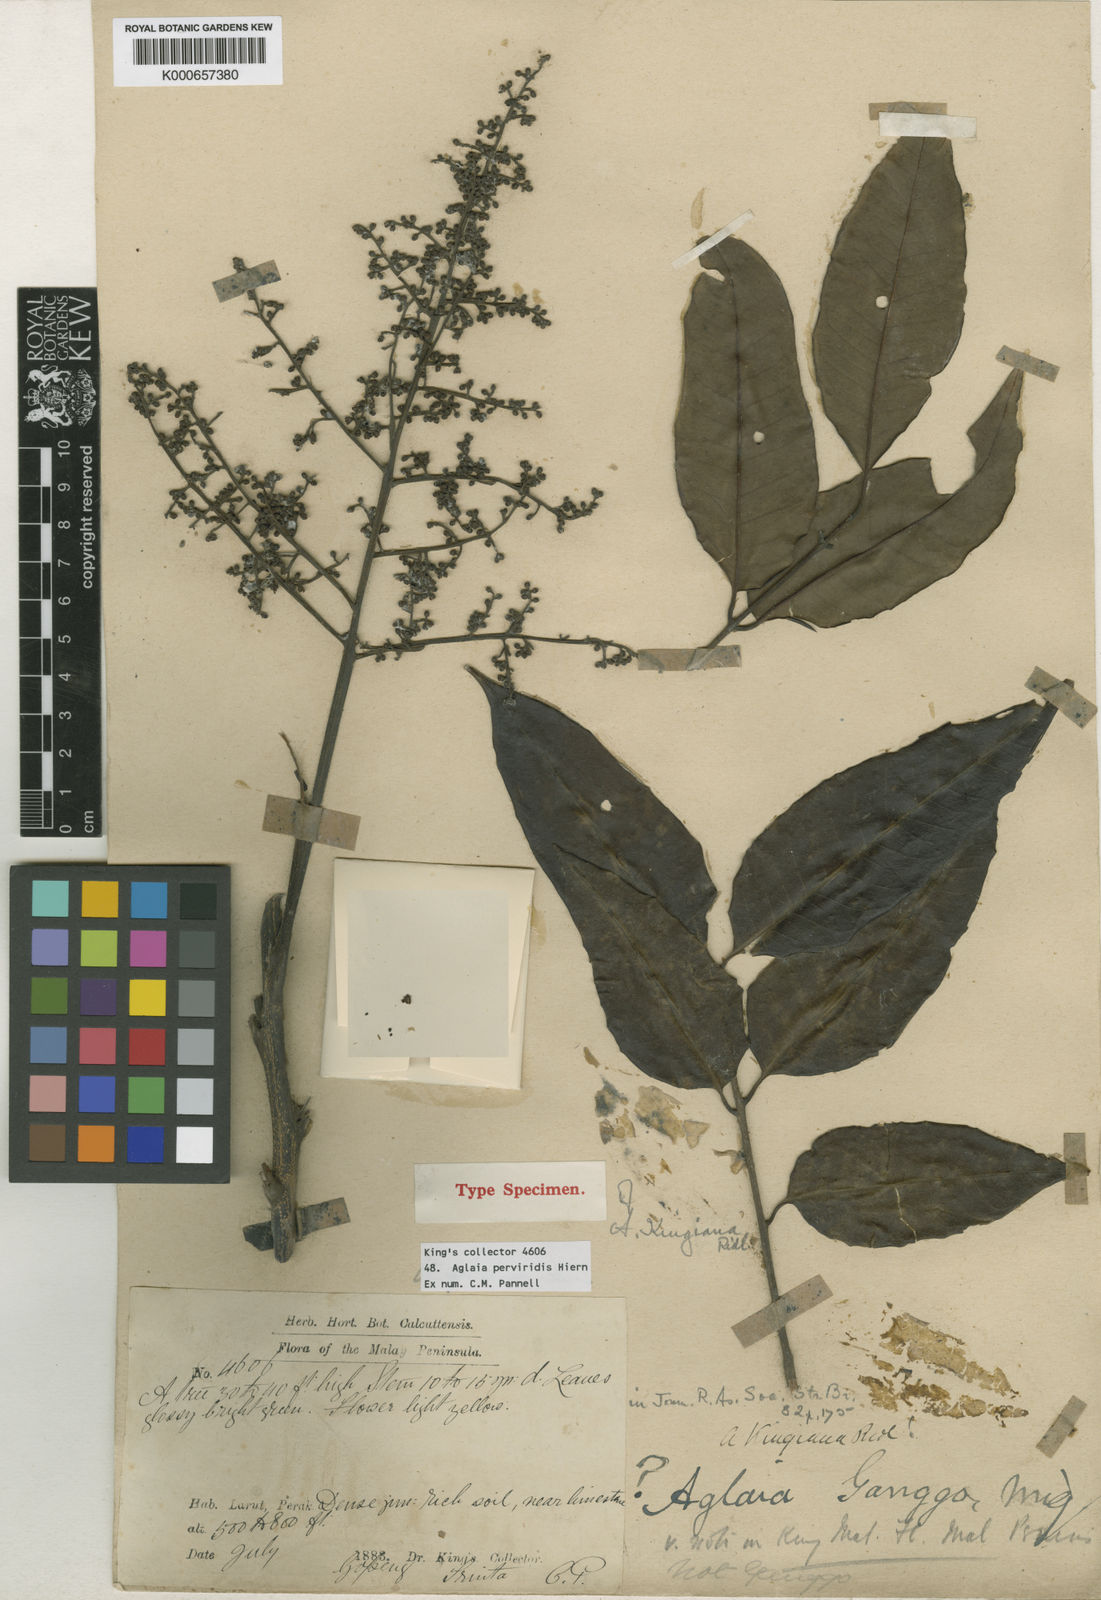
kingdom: Plantae
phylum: Tracheophyta
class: Magnoliopsida
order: Sapindales
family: Meliaceae
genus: Aglaia
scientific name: Aglaia perviridis
